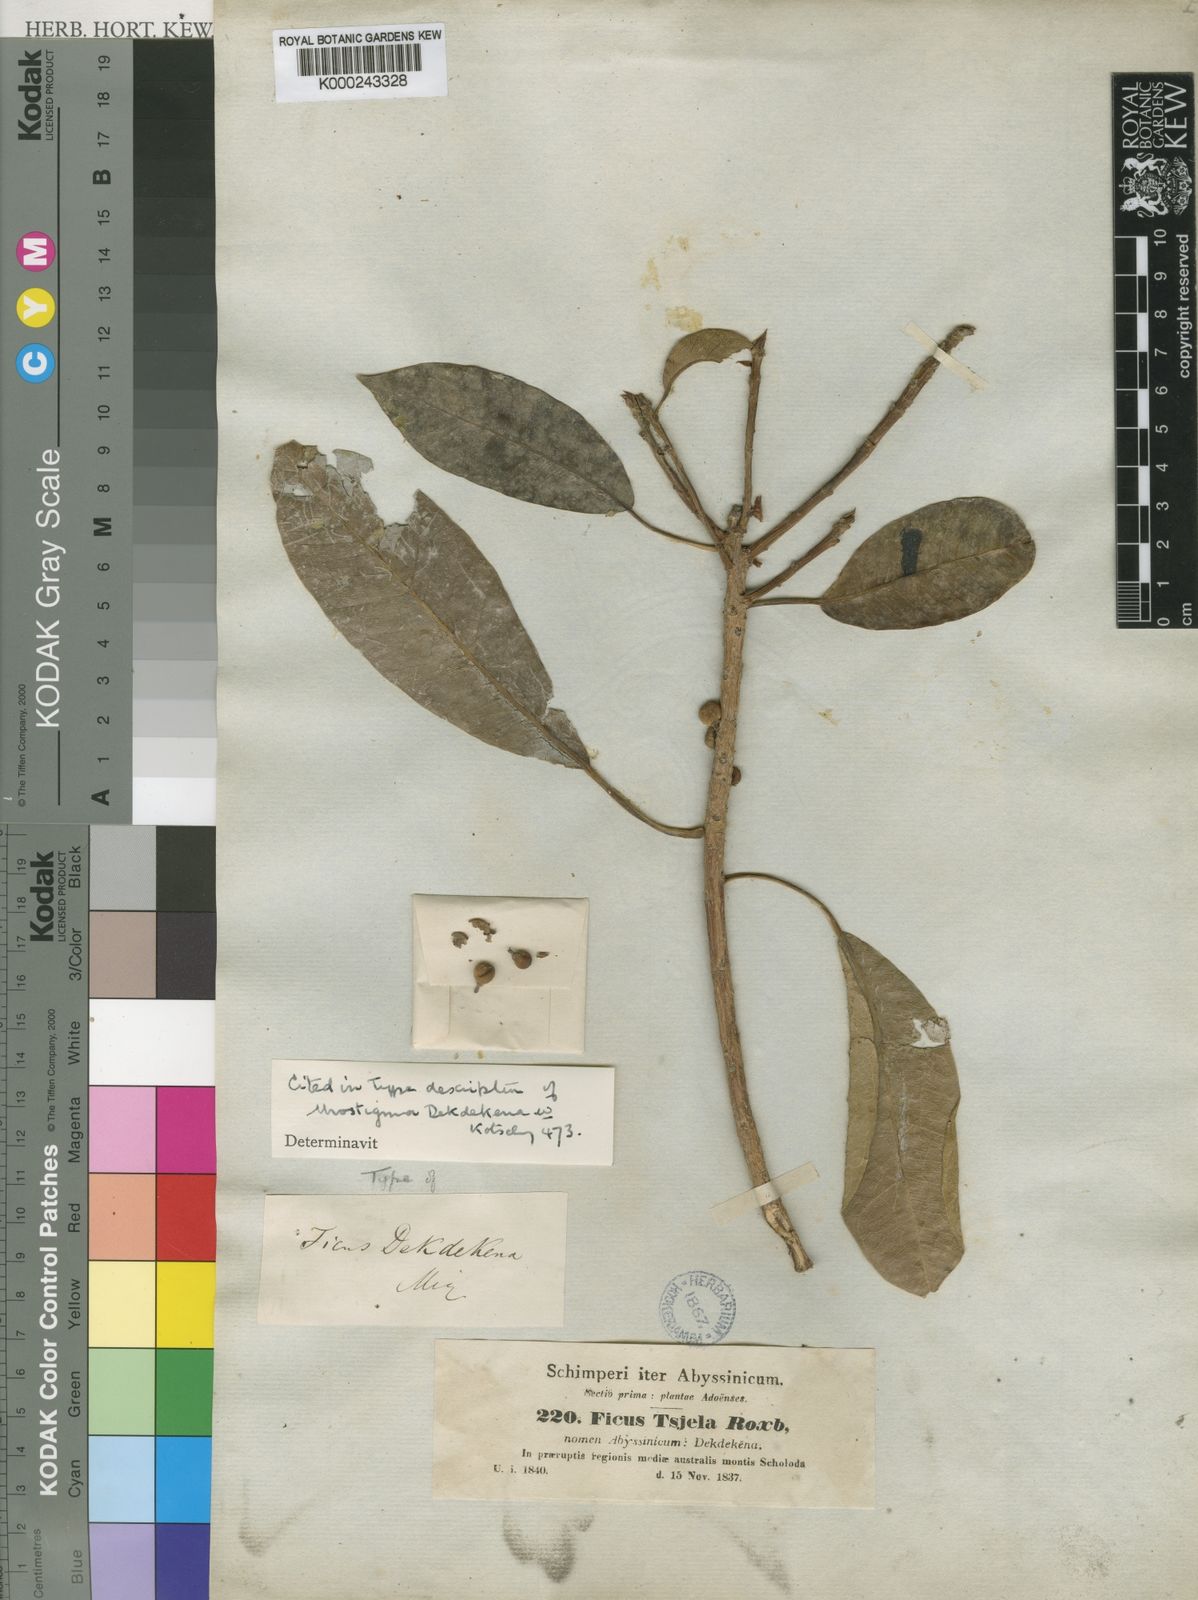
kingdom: Plantae
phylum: Tracheophyta
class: Magnoliopsida
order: Rosales
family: Moraceae
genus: Ficus
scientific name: Ficus thonningii
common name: Fig
